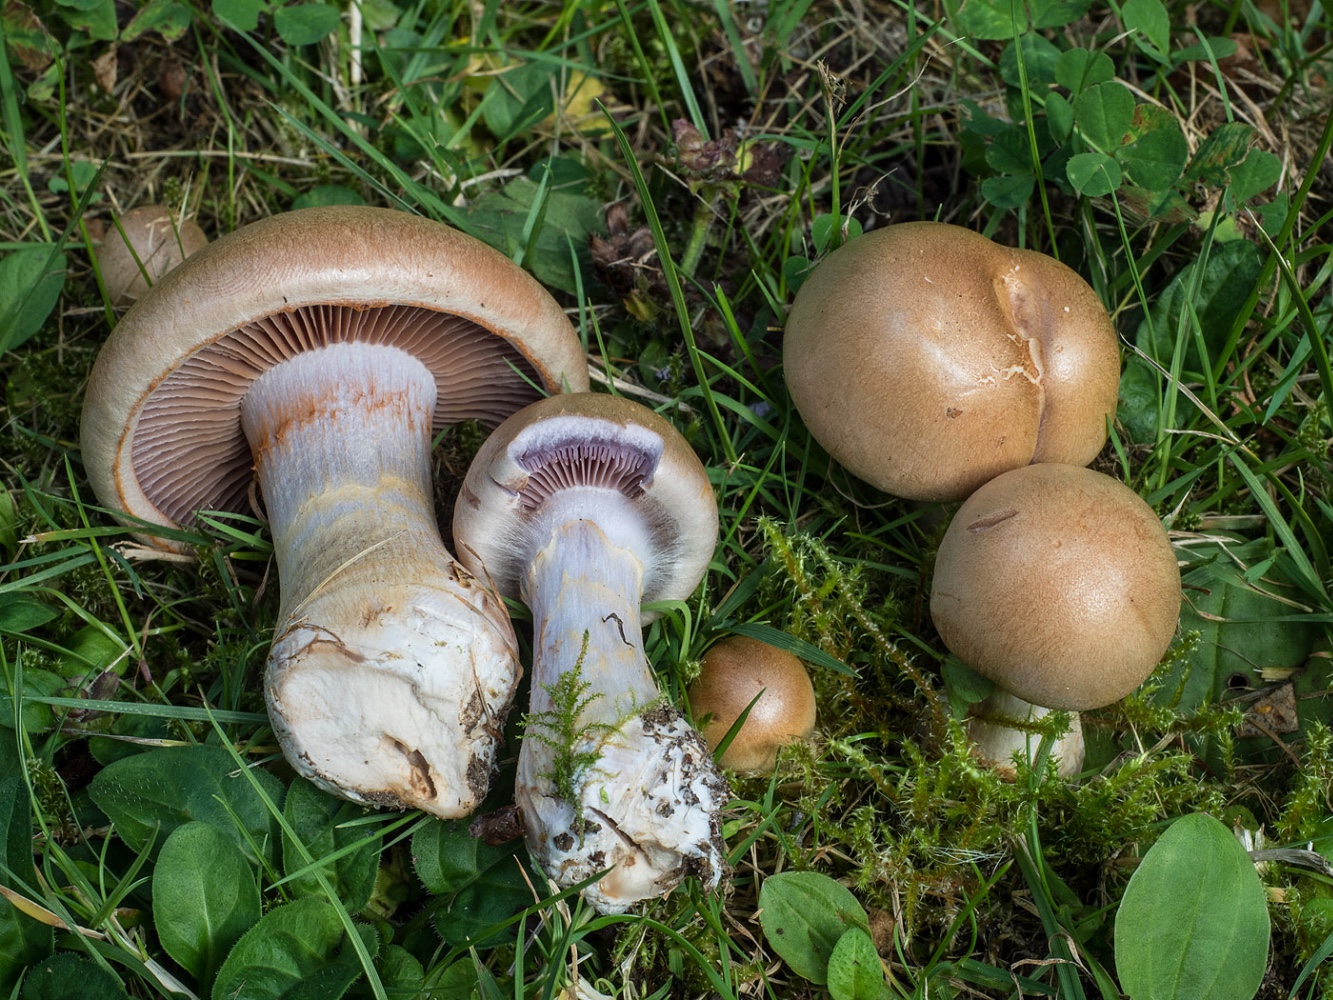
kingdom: Fungi
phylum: Basidiomycota
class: Agaricomycetes
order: Agaricales
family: Cortinariaceae
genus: Cortinarius
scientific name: Cortinarius
